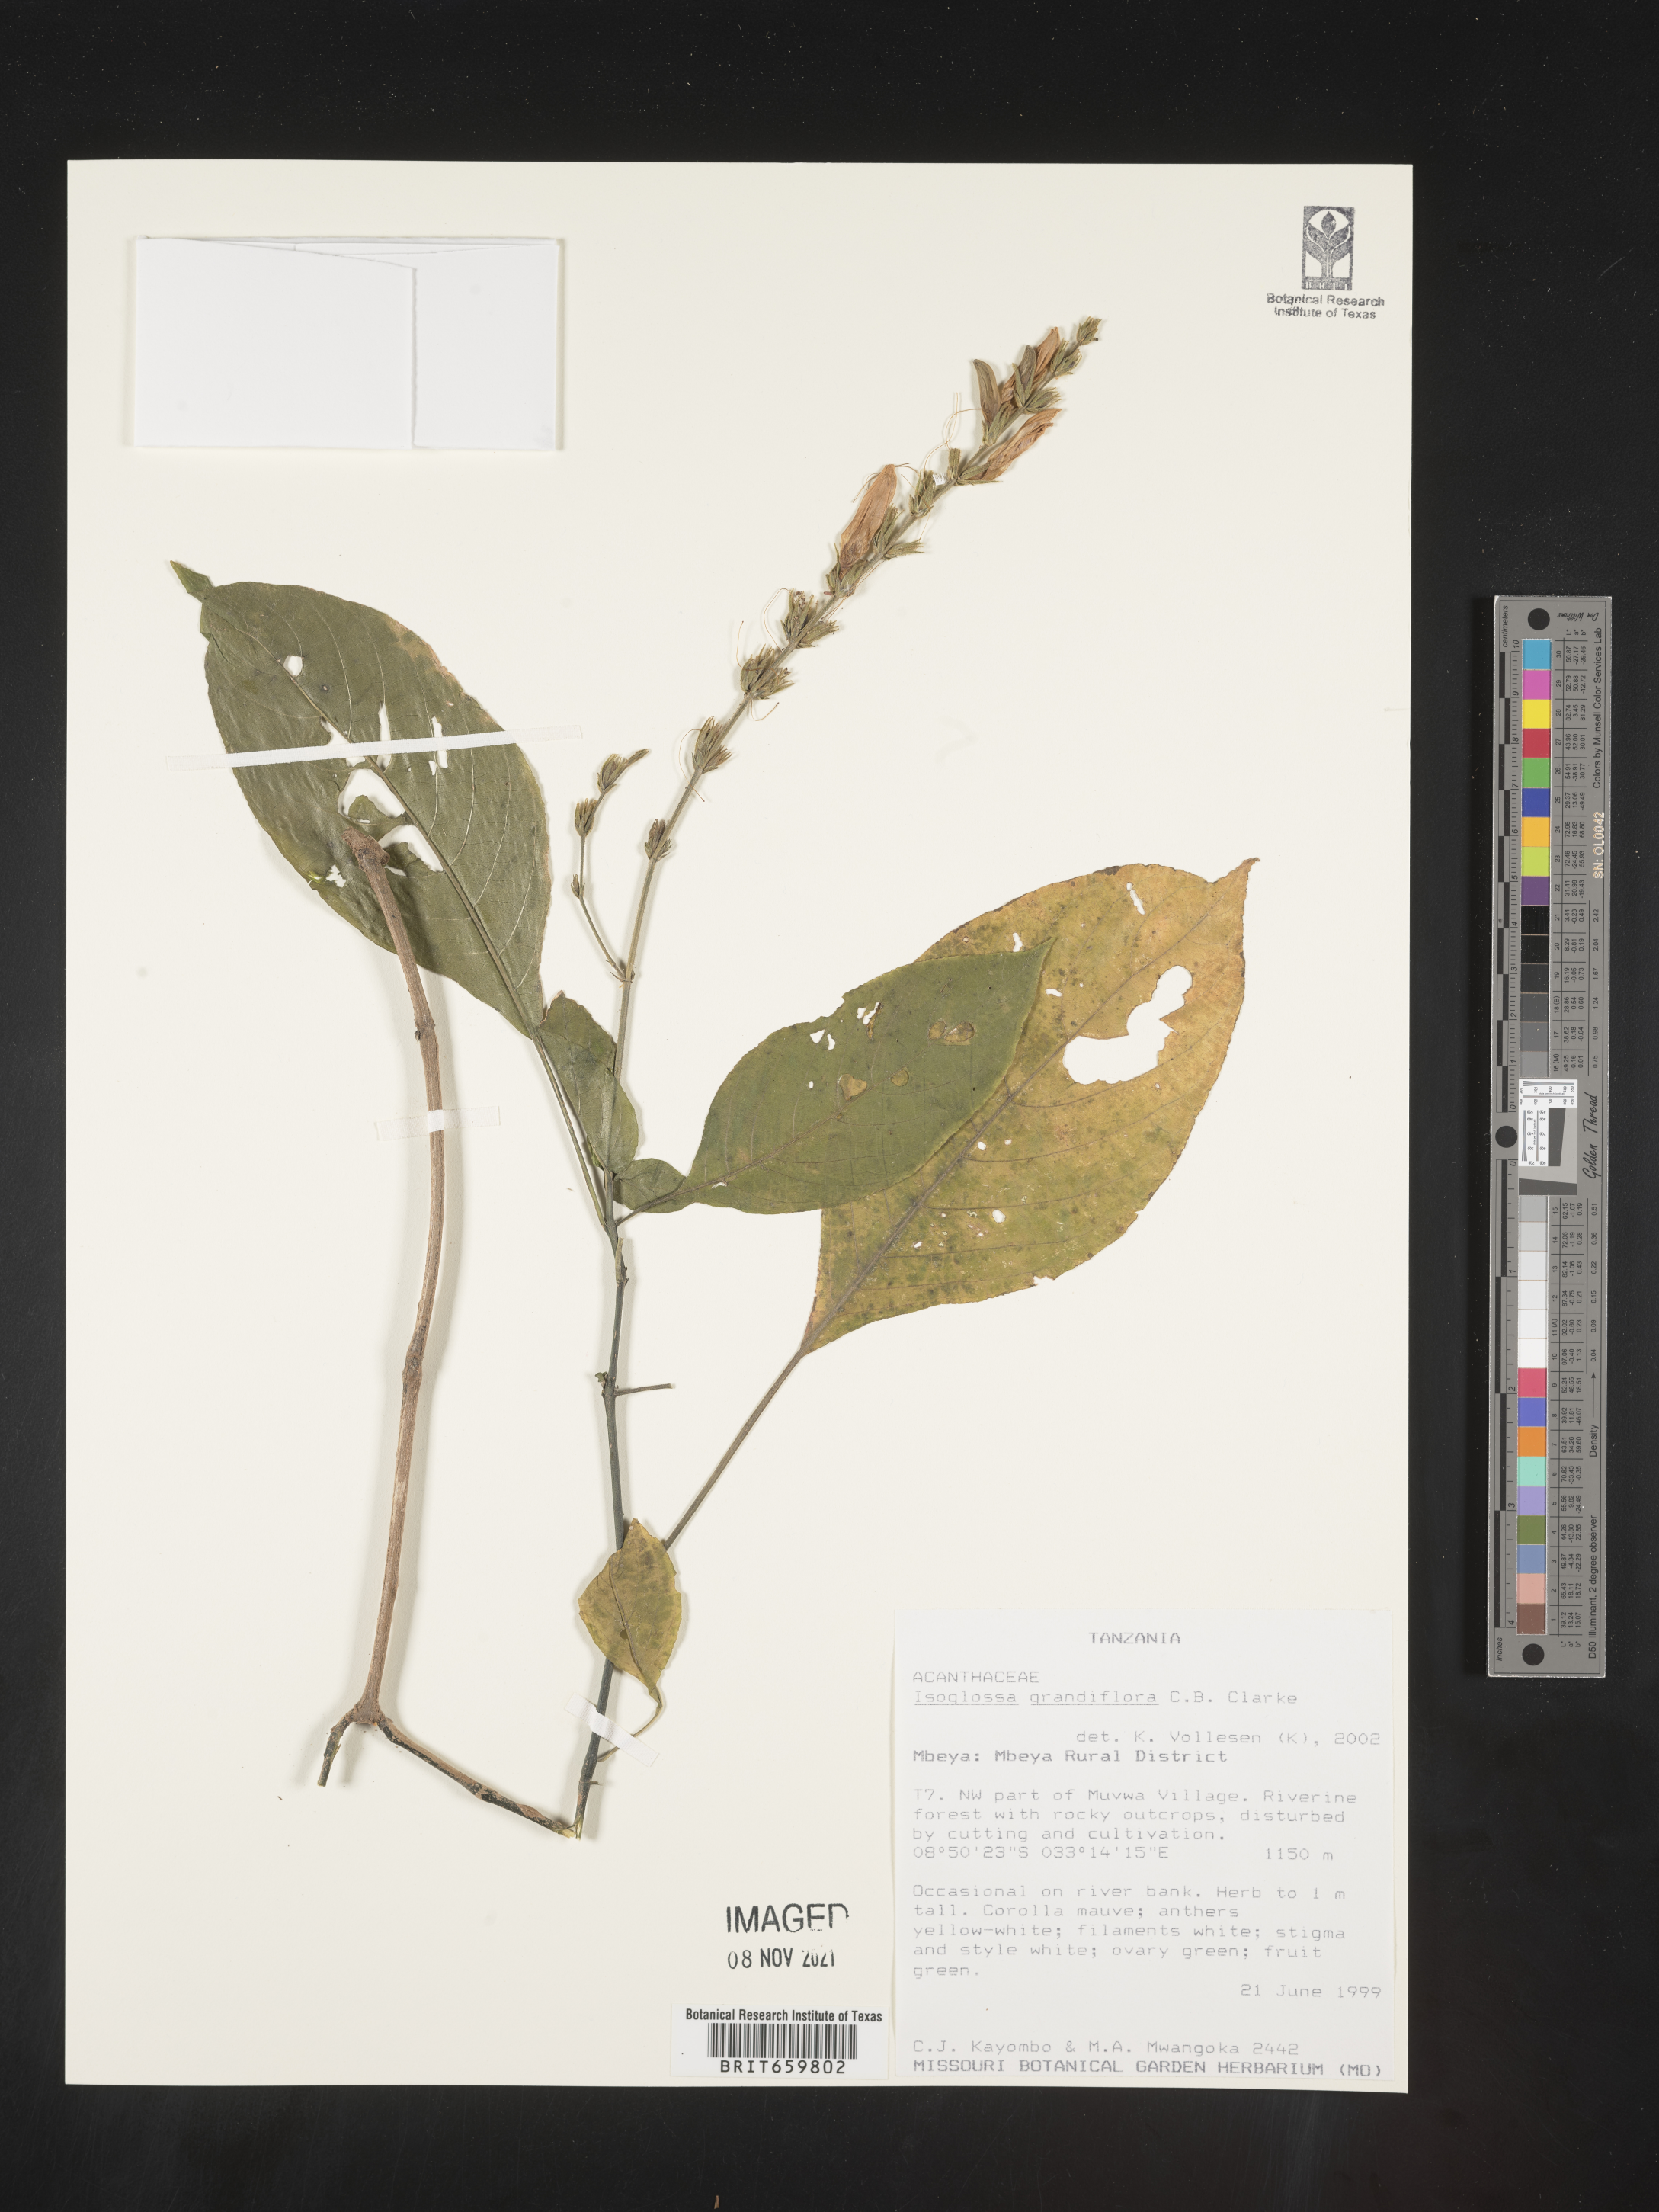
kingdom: Plantae
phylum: Tracheophyta
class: Magnoliopsida
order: Lamiales
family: Acanthaceae
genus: Isoglossa
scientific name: Isoglossa grandiflora
